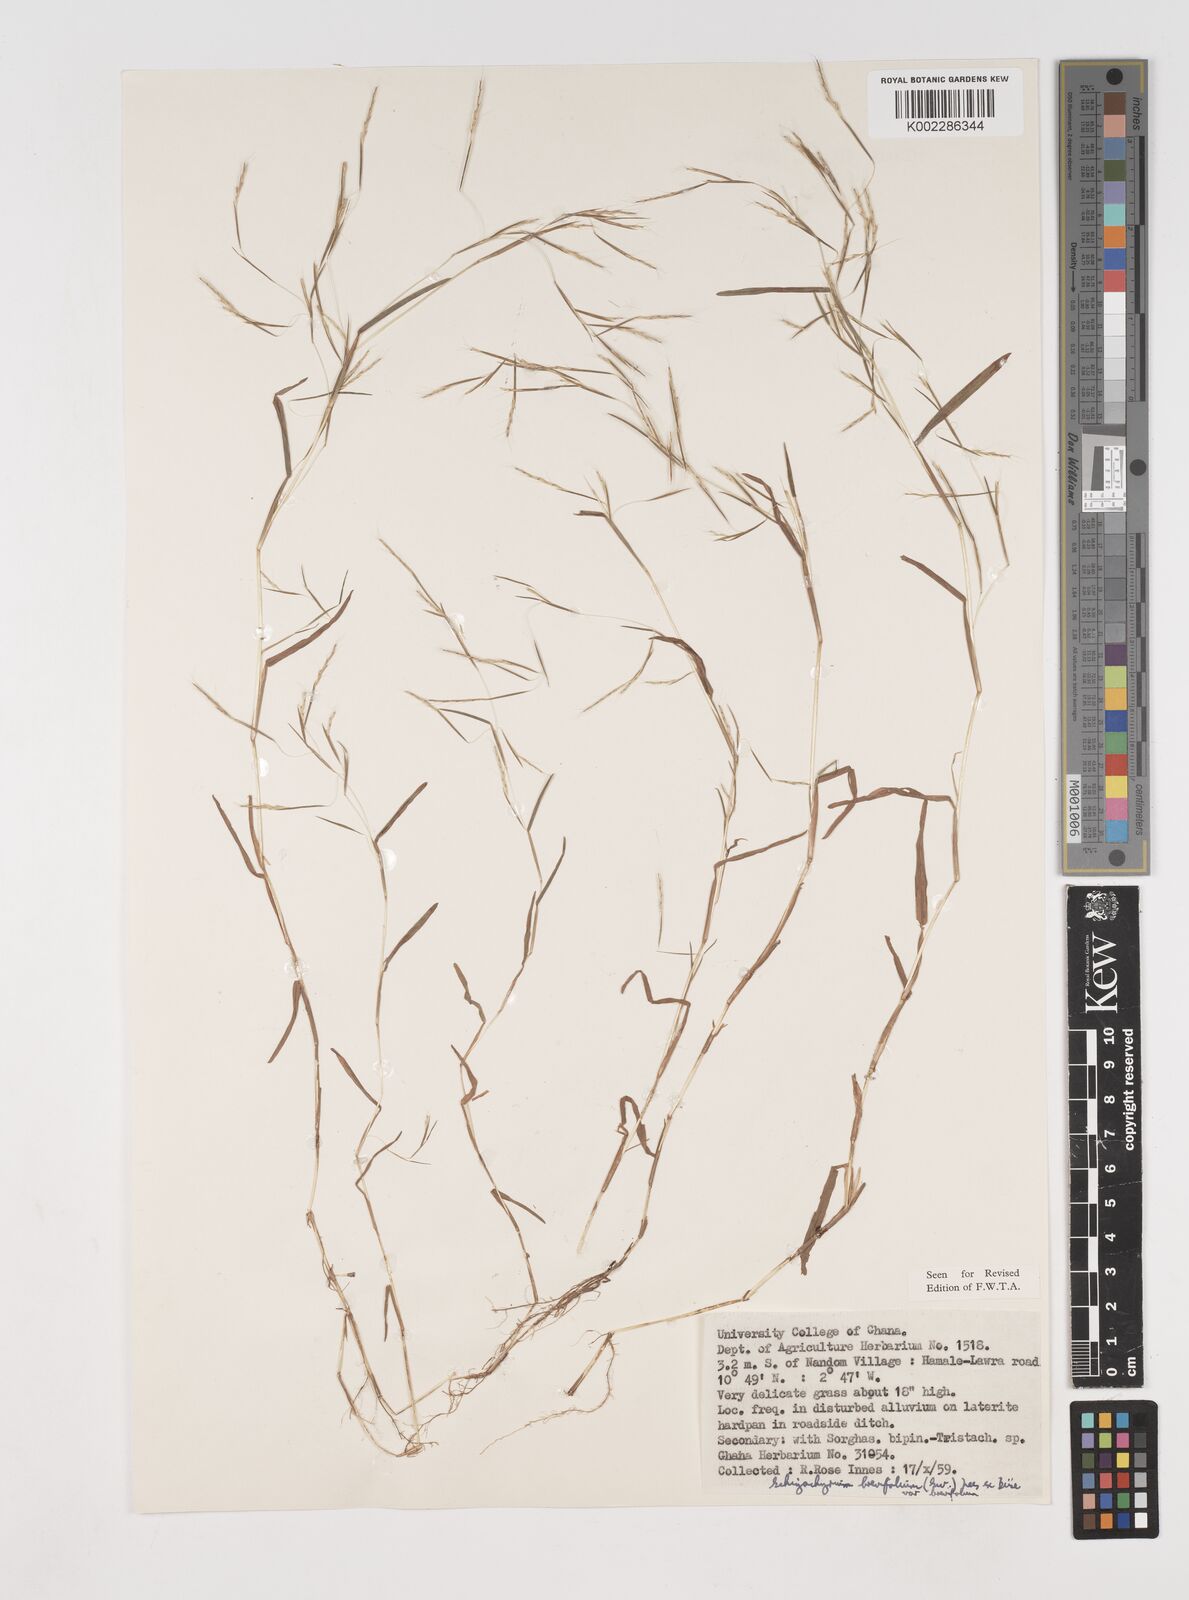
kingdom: Plantae
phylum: Tracheophyta
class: Liliopsida
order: Poales
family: Poaceae
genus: Schizachyrium
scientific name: Schizachyrium brevifolium
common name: Serillo dulce
